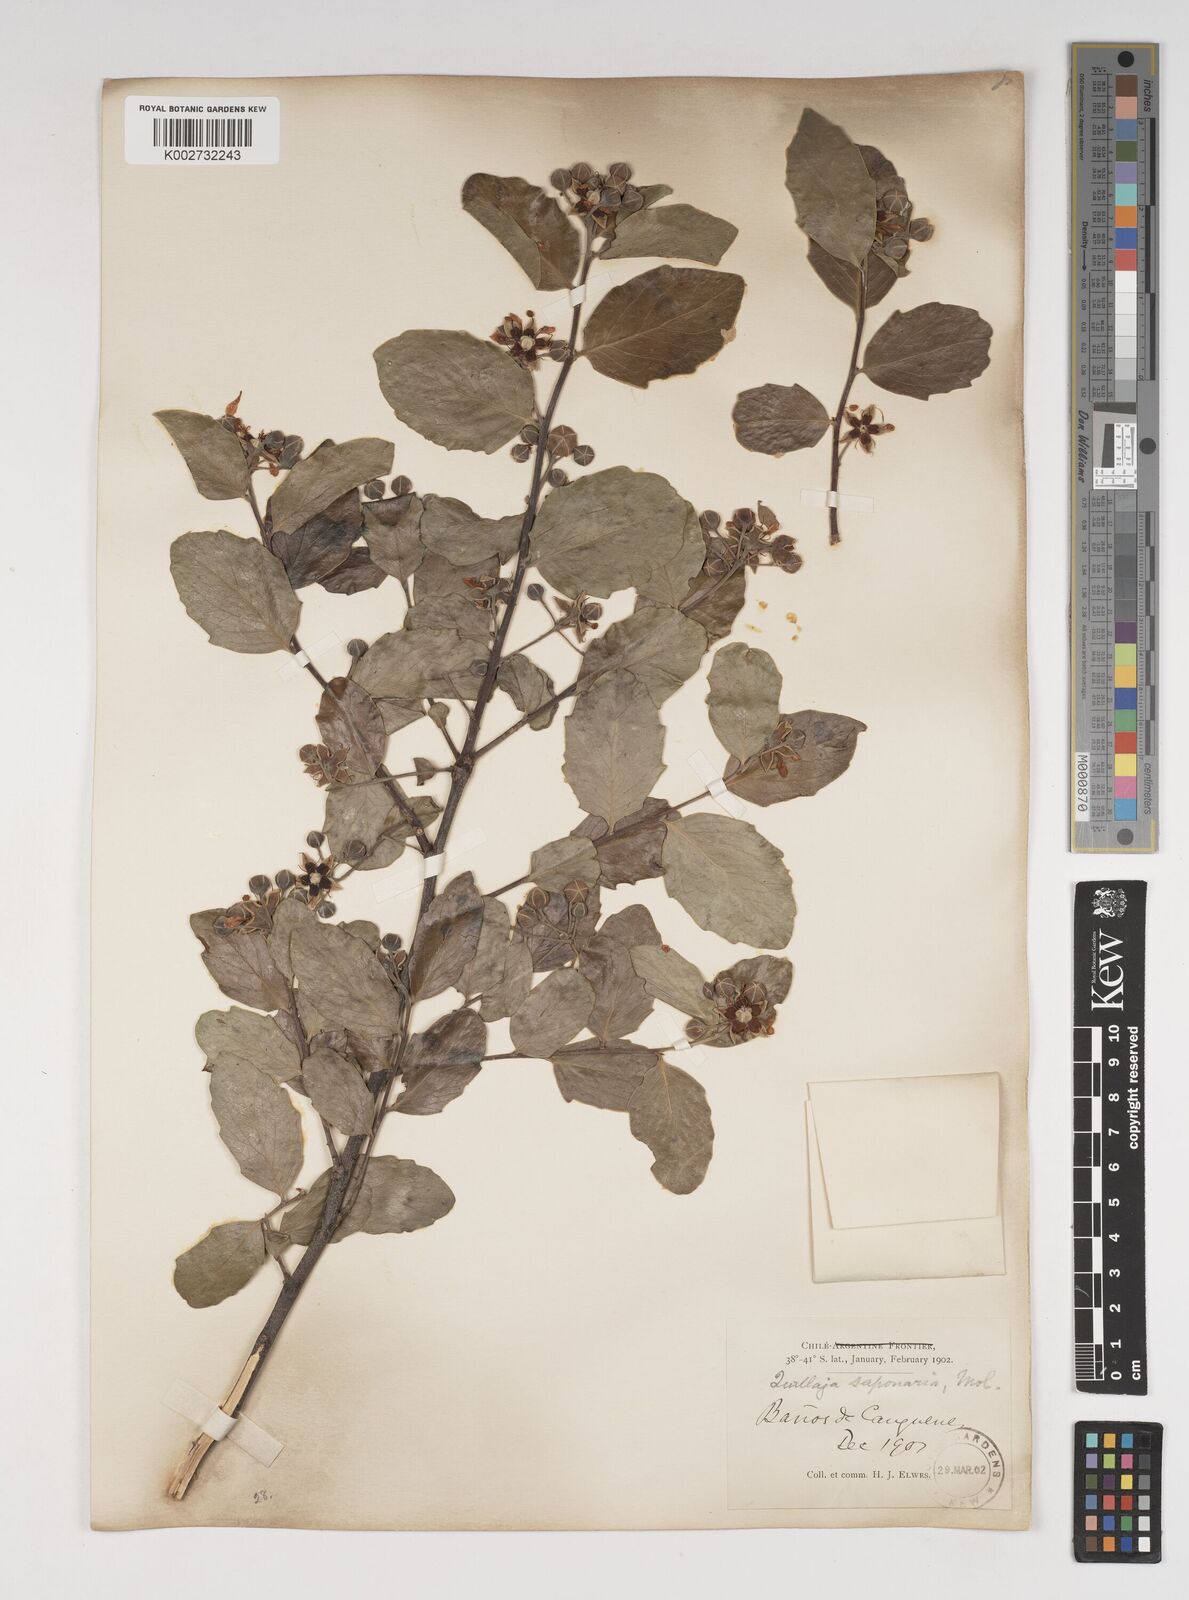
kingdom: Plantae
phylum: Tracheophyta
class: Magnoliopsida
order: Fabales
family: Quillajaceae
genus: Quillaja
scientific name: Quillaja saponaria
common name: Murillo's-bark
